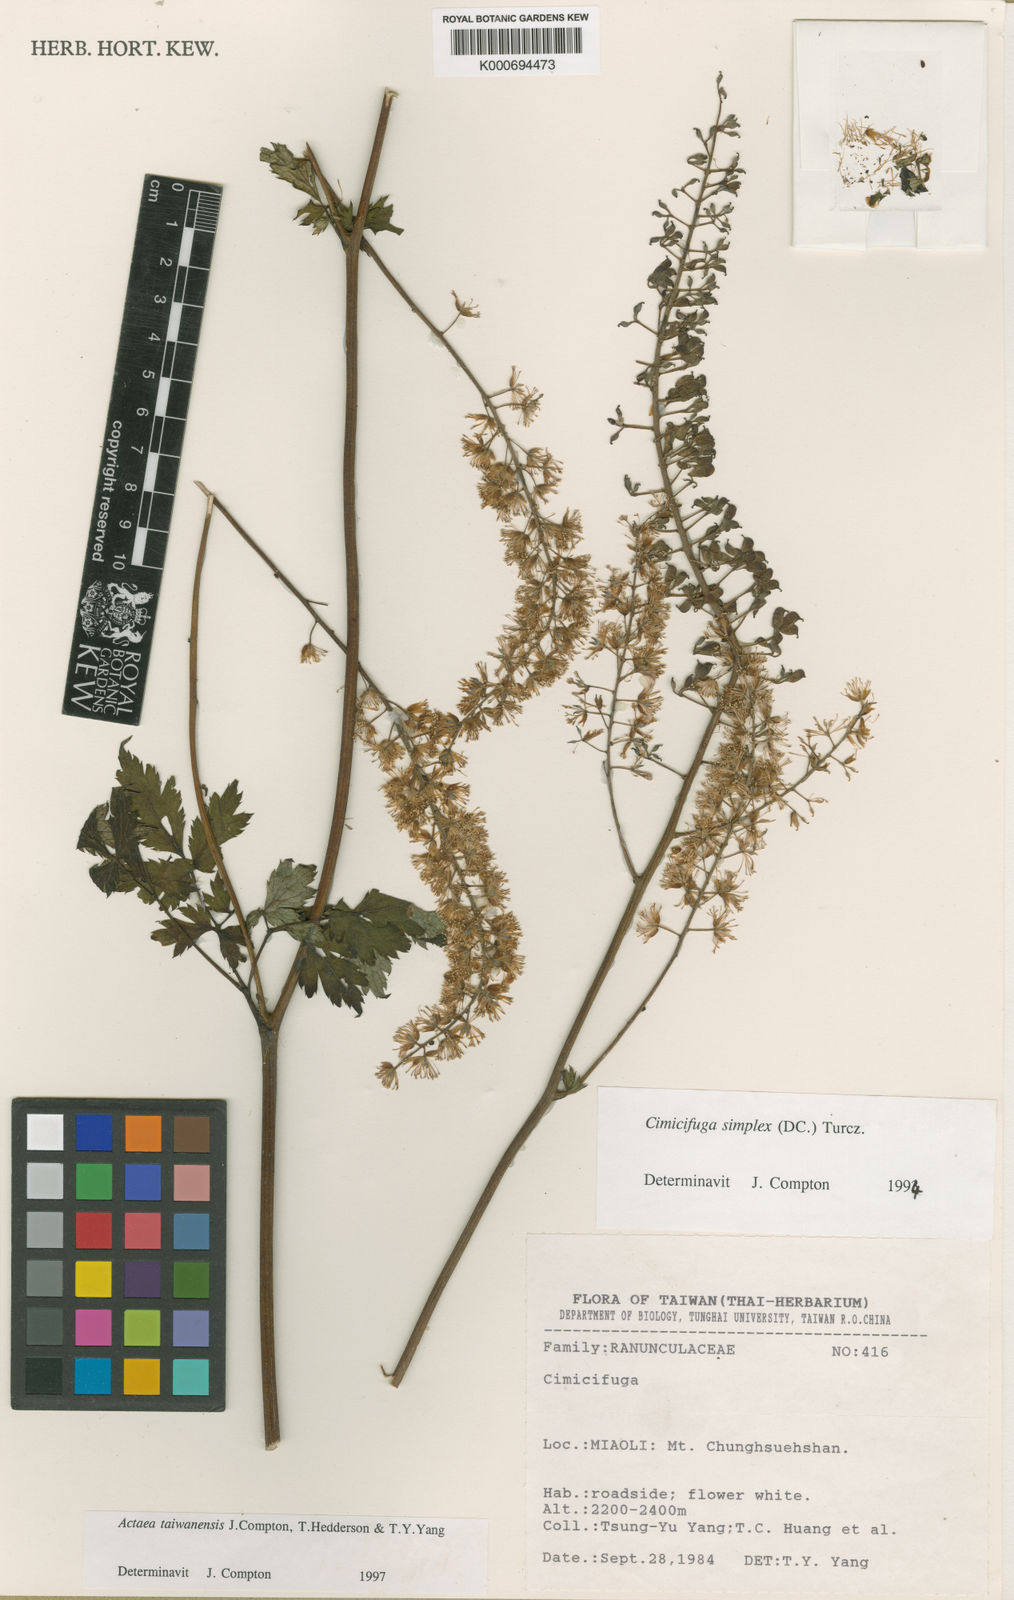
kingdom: Plantae
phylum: Tracheophyta
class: Magnoliopsida
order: Ranunculales
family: Ranunculaceae
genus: Actaea
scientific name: Actaea
